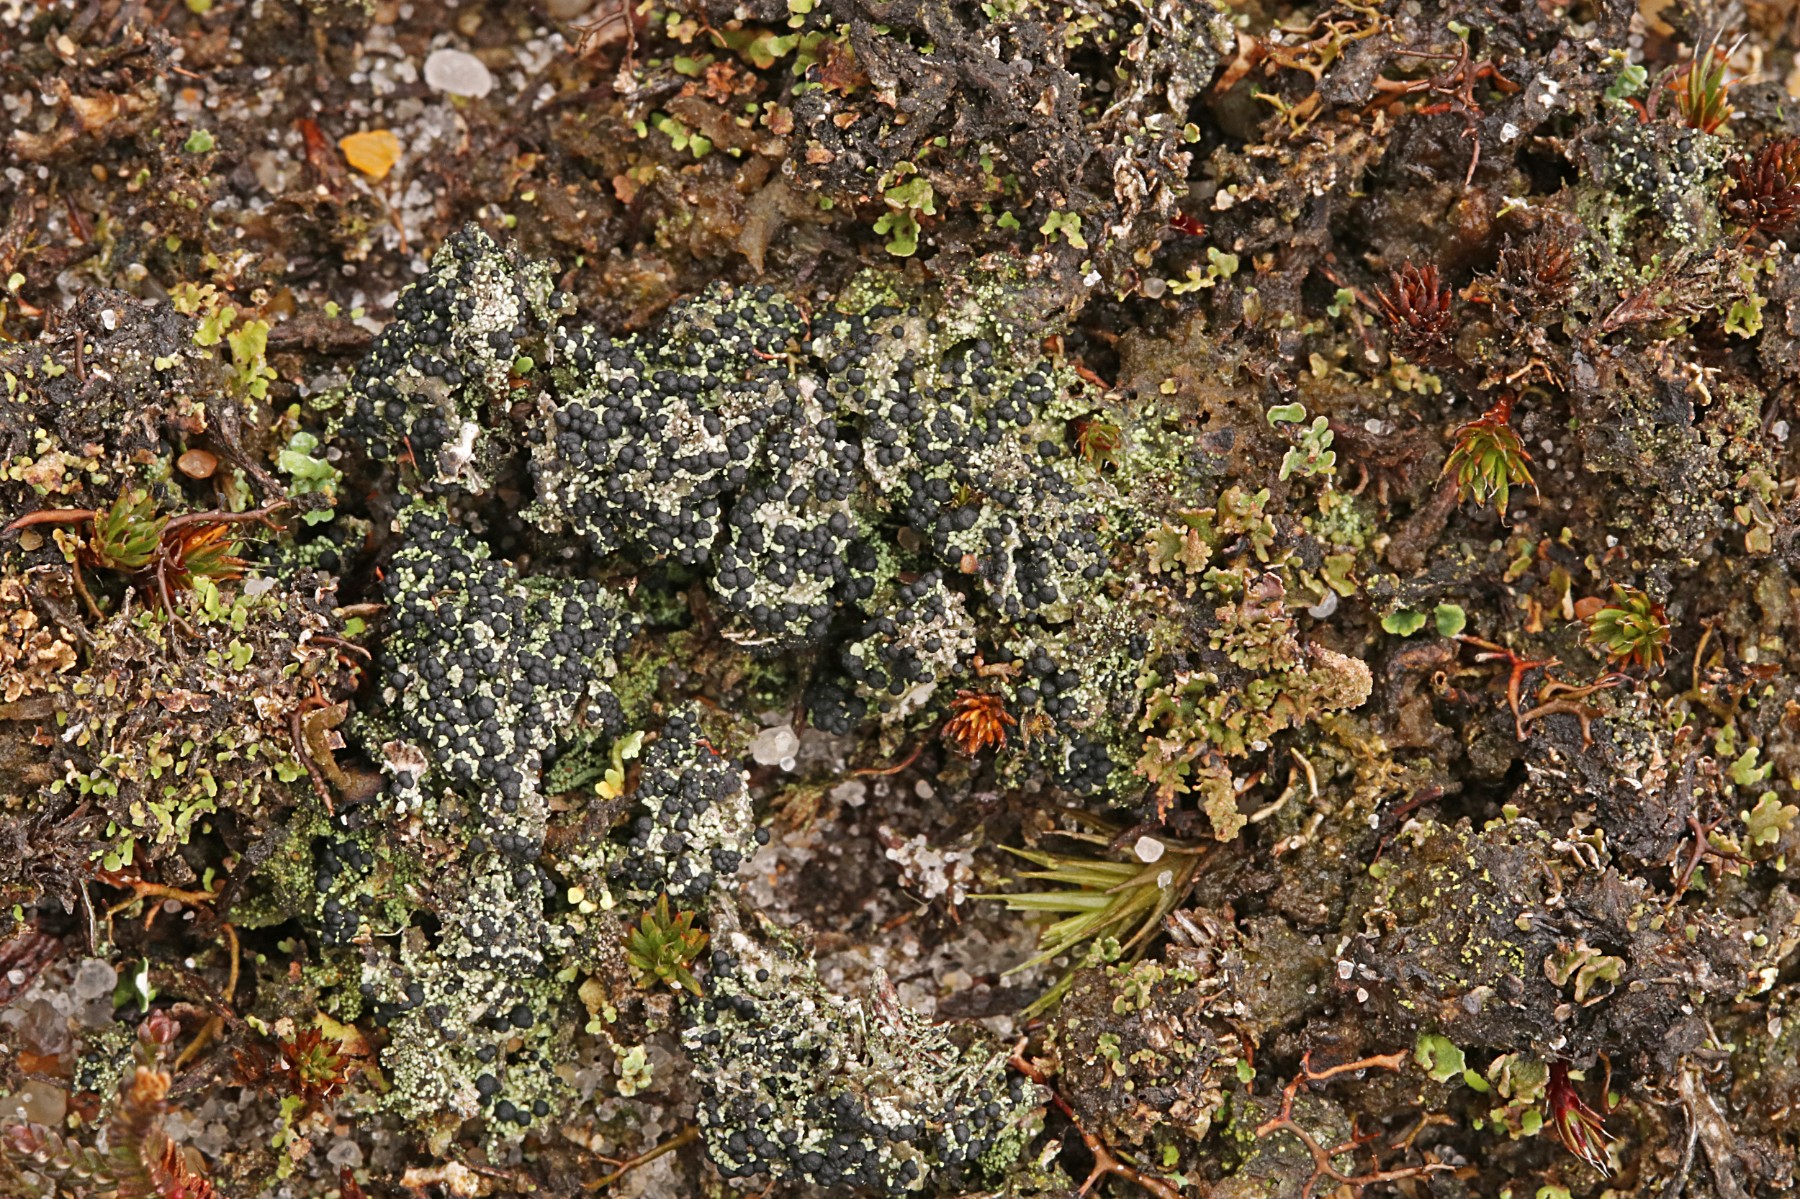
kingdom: Fungi
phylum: Ascomycota
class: Lecanoromycetes
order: Lecanorales
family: Byssolomataceae
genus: Micarea
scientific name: Micarea lignaria
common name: tørve-knaplav
